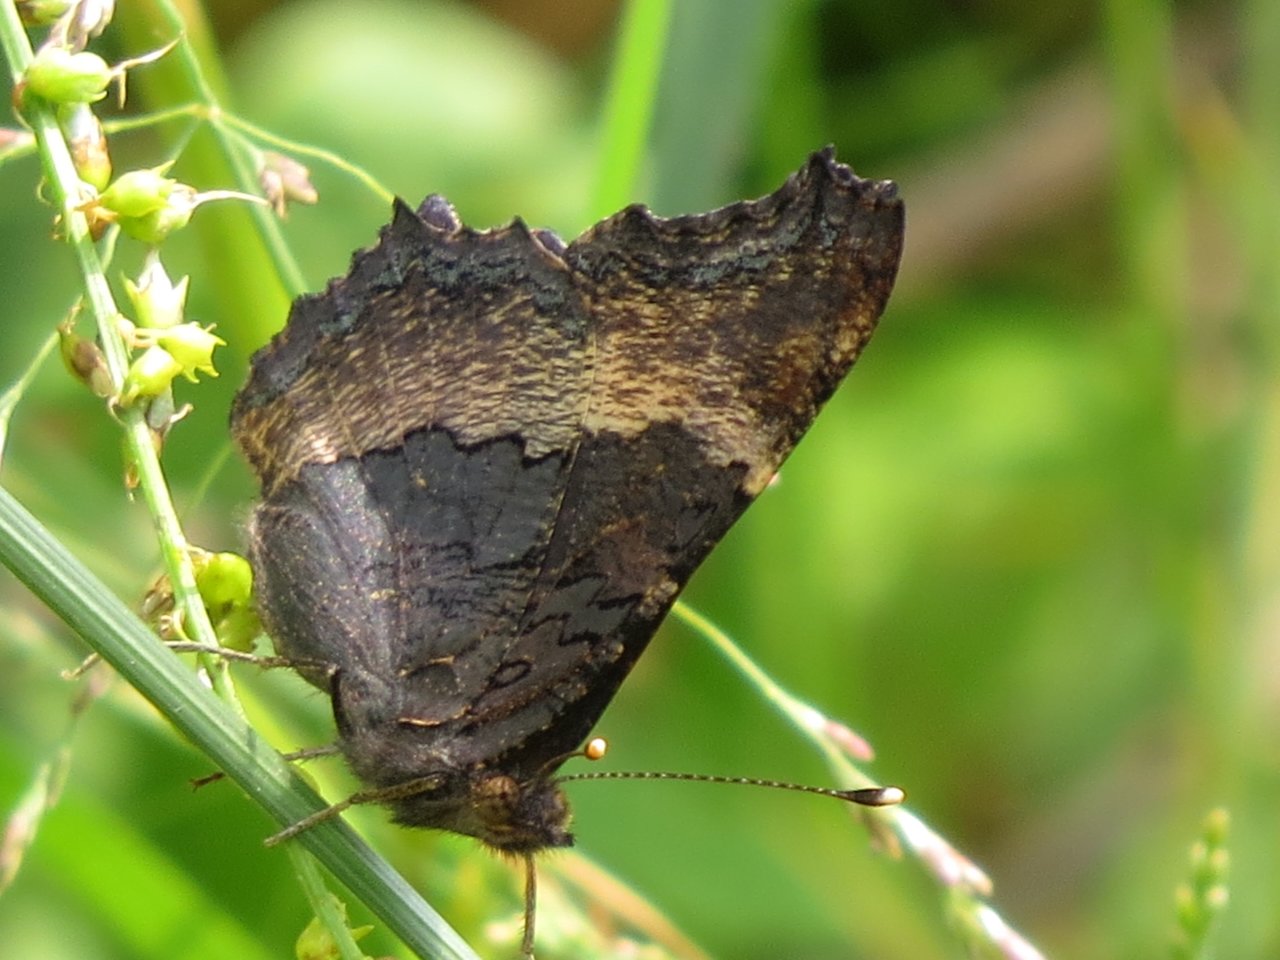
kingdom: Animalia
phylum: Arthropoda
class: Insecta
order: Lepidoptera
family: Nymphalidae
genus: Aglais
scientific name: Aglais milberti
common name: Milbert's Tortoiseshell
